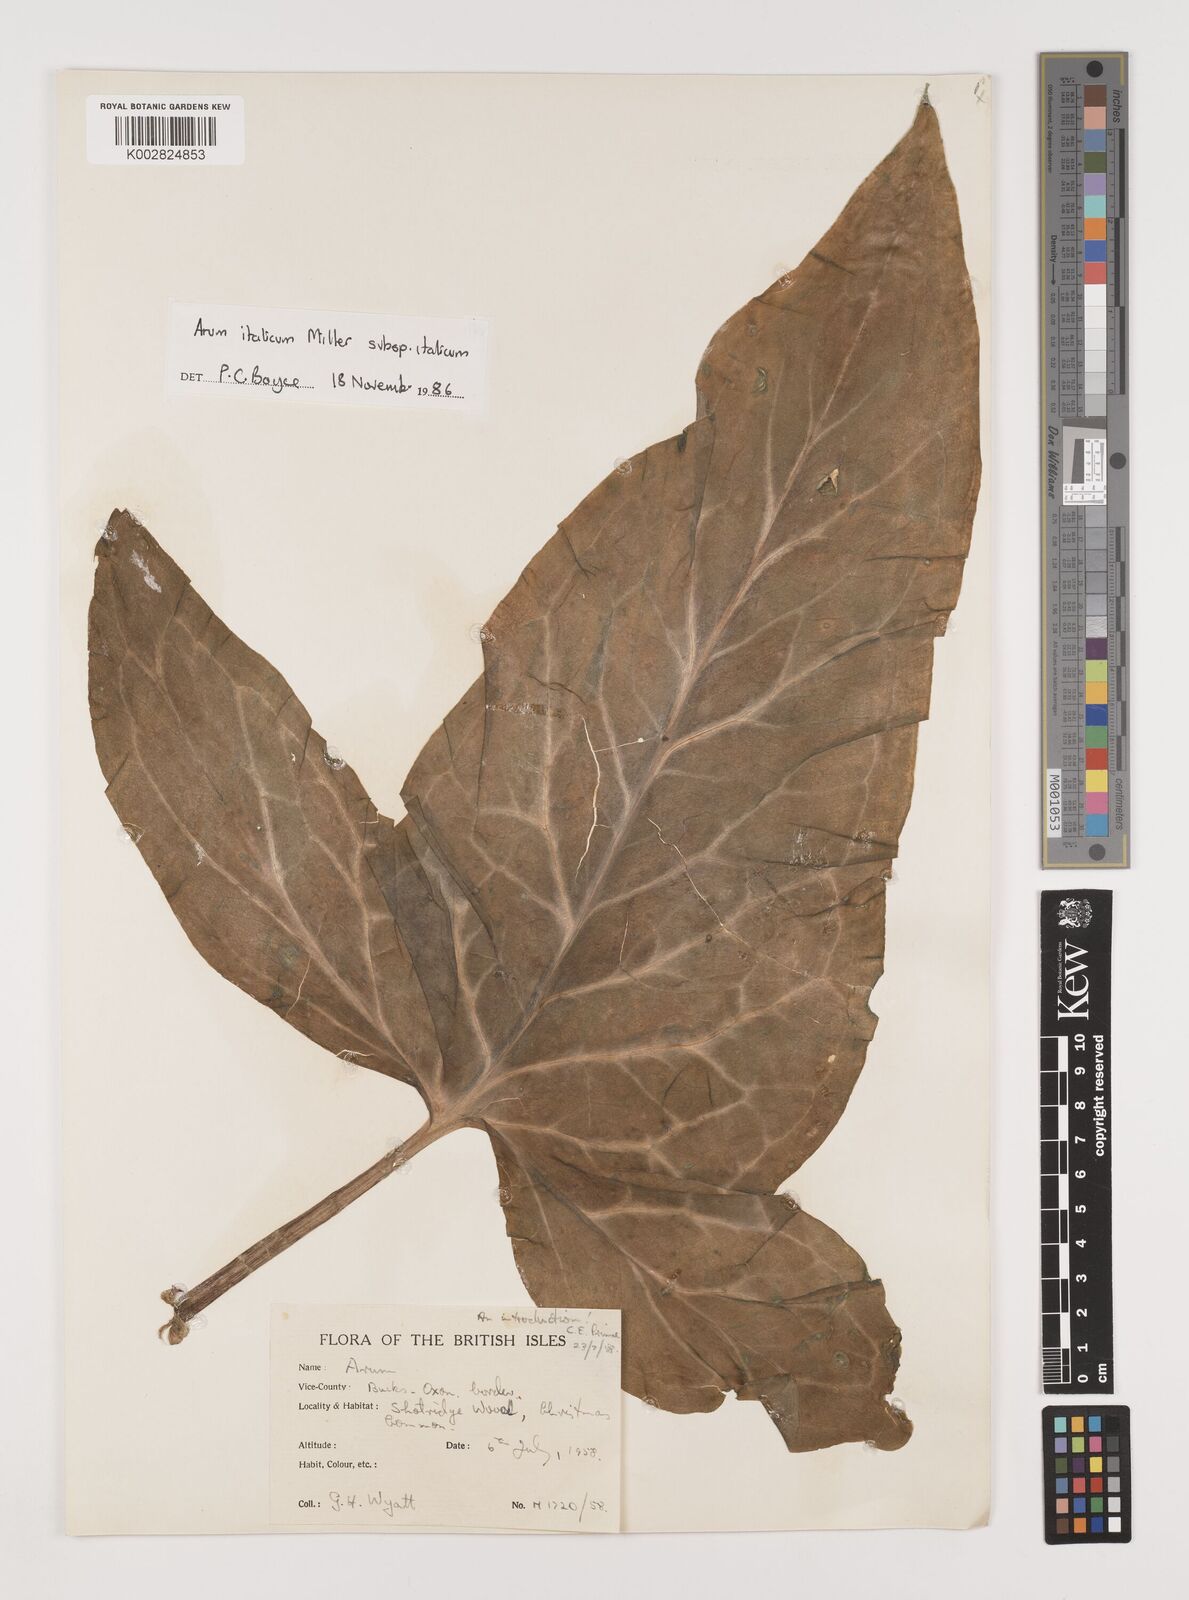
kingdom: Plantae
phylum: Tracheophyta
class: Liliopsida
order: Alismatales
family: Araceae
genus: Arum
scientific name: Arum italicum
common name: Italian lords-and-ladies
